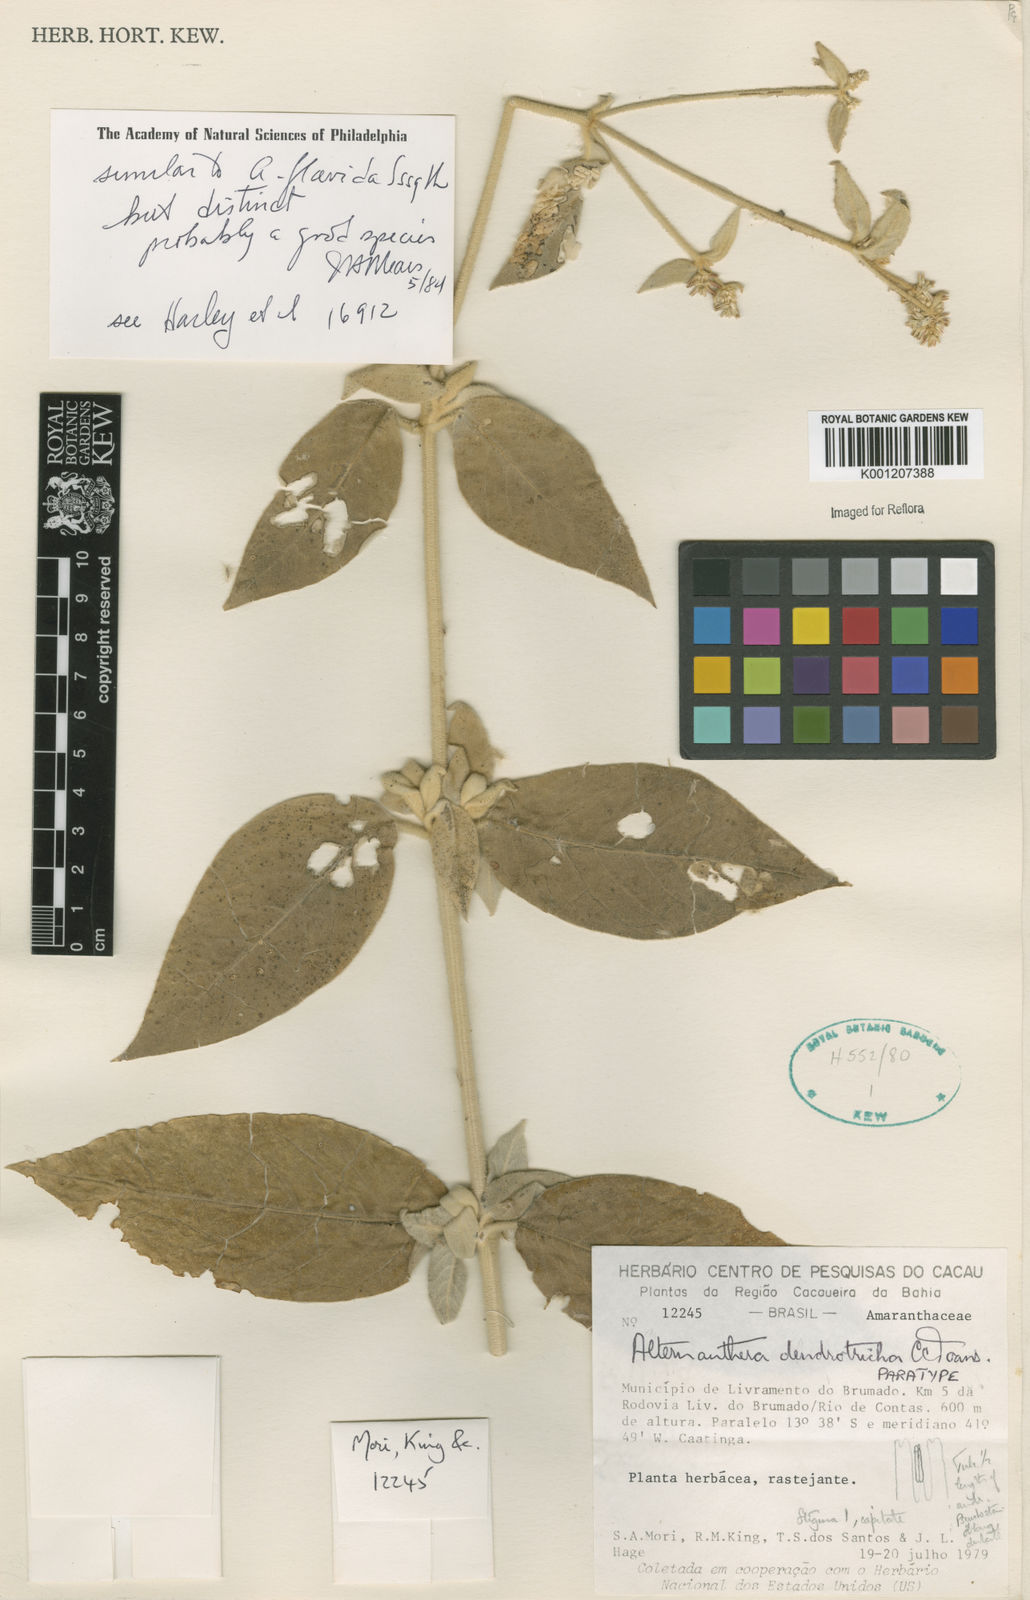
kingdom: Plantae
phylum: Tracheophyta
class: Magnoliopsida
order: Caryophyllales
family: Amaranthaceae
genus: Alternanthera
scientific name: Alternanthera dendrotricha
